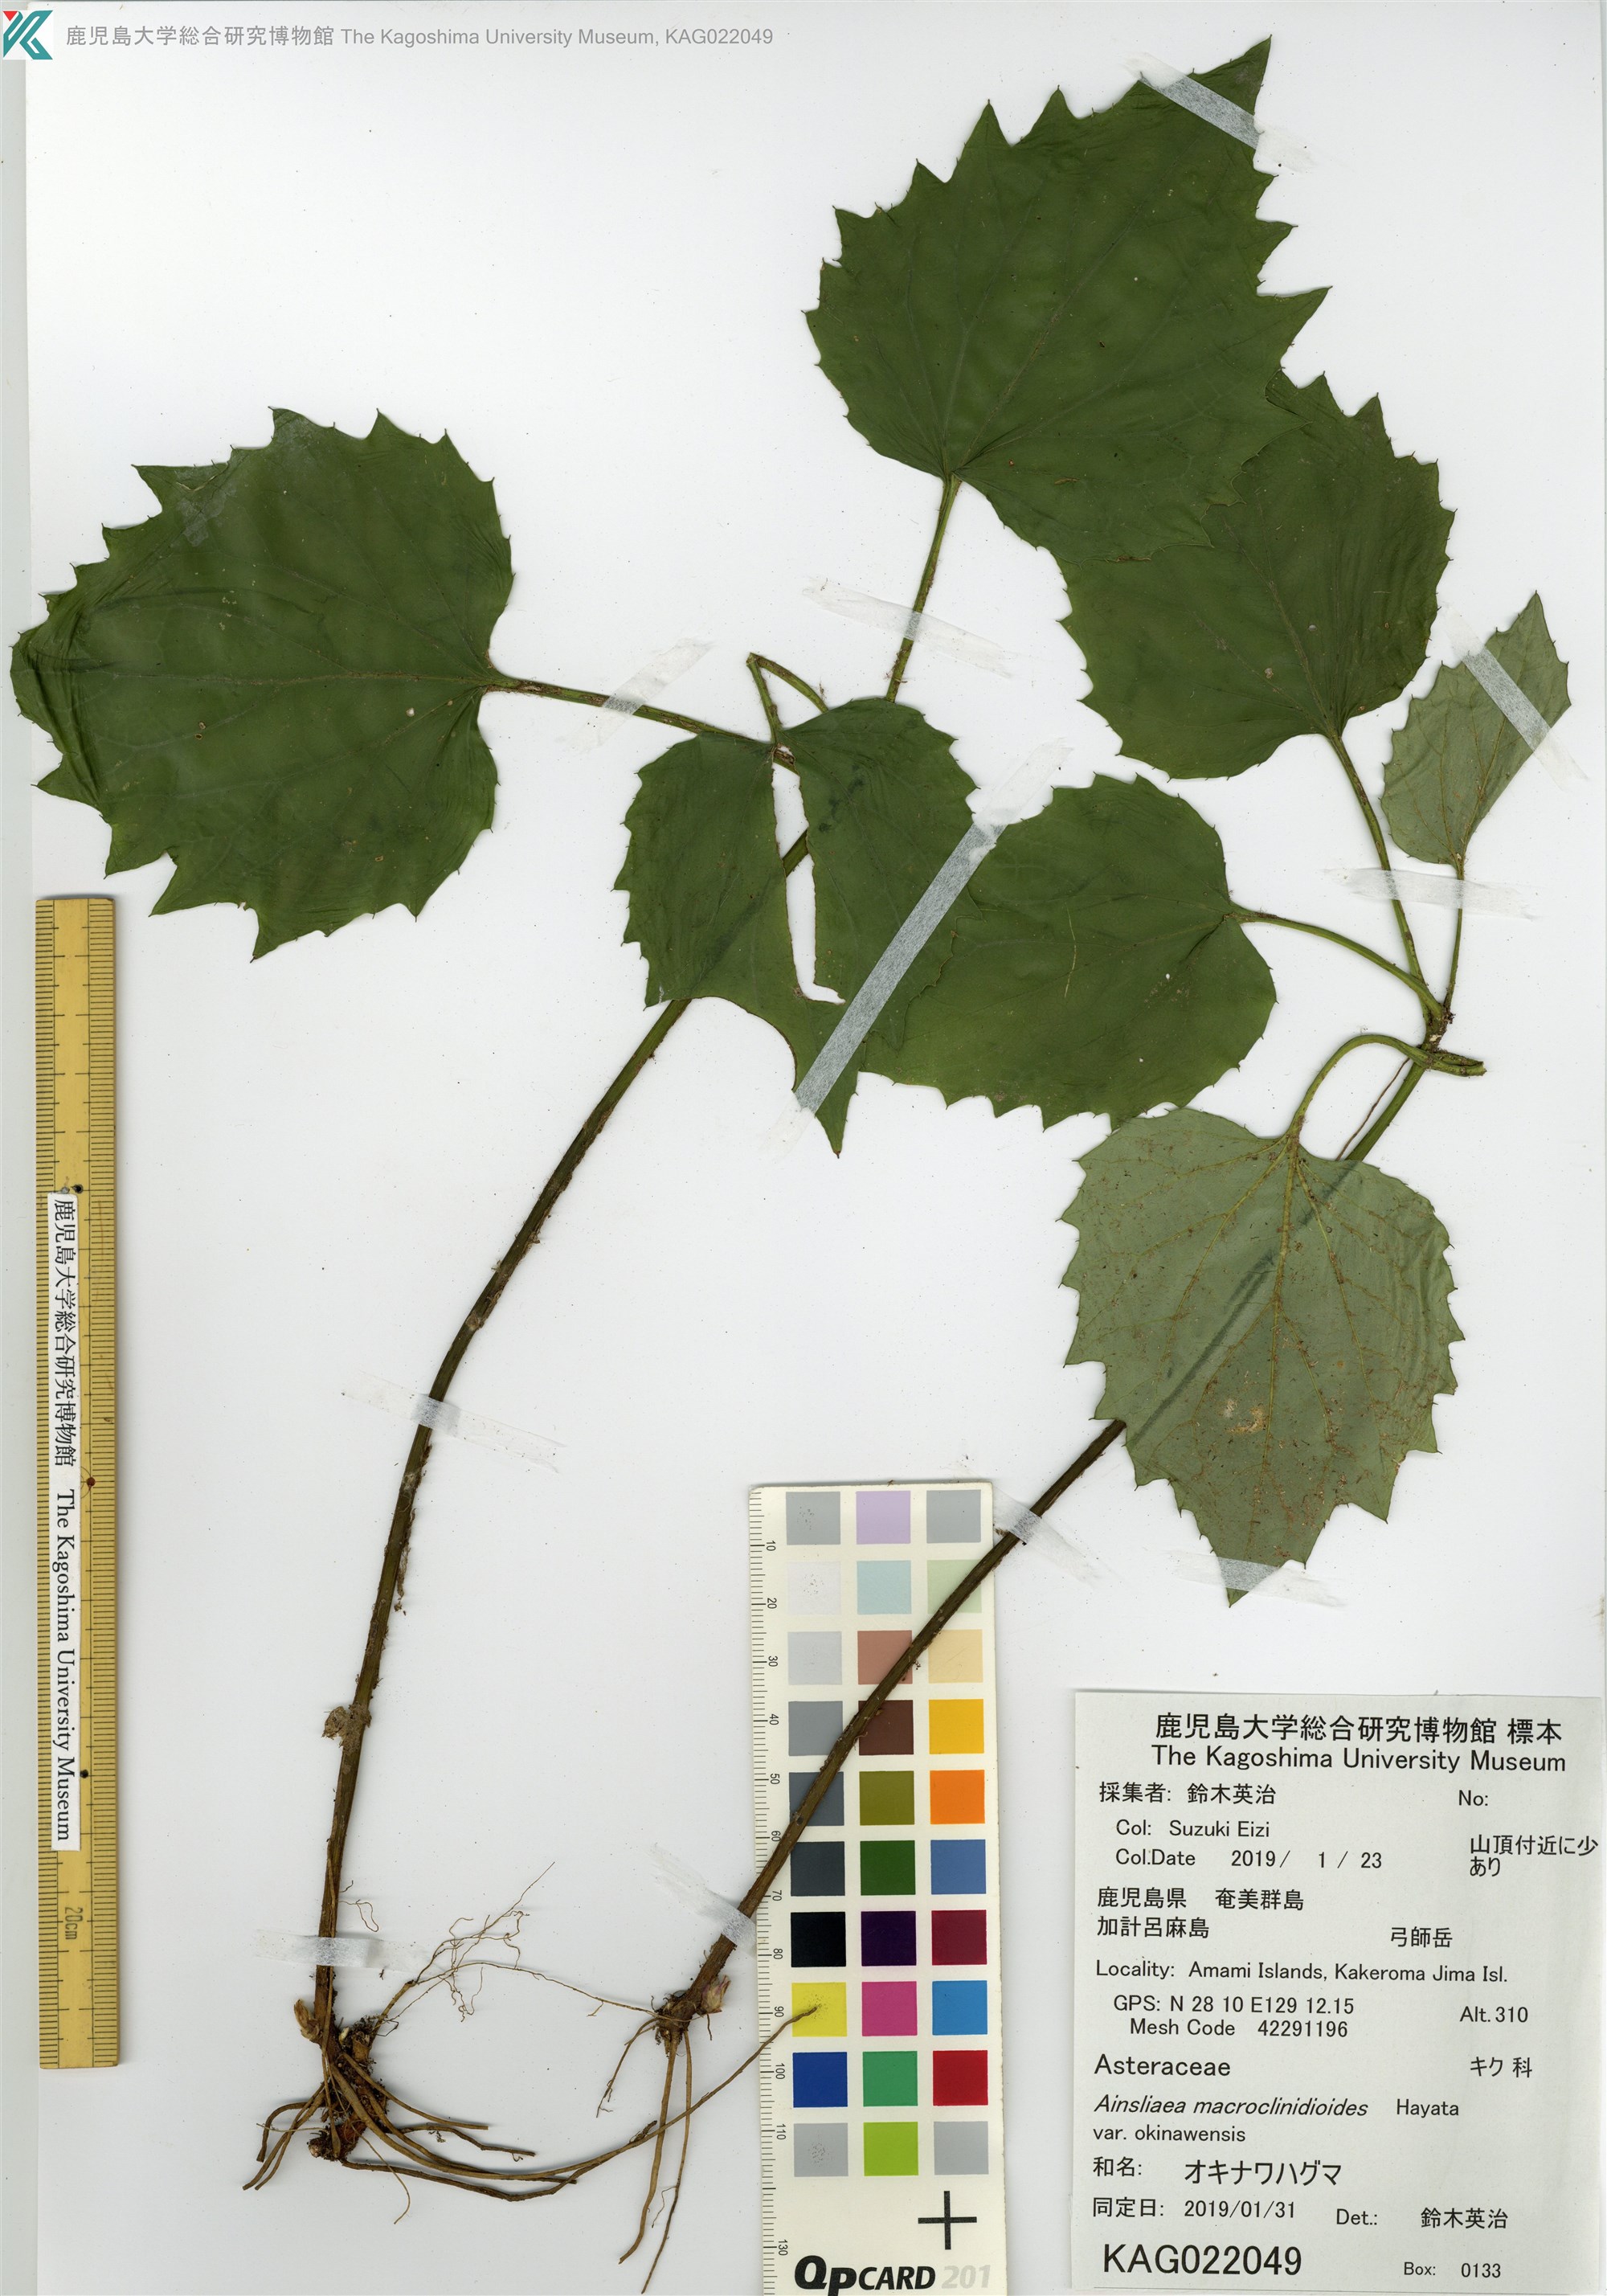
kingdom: Plantae
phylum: Tracheophyta
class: Magnoliopsida
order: Asterales
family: Asteraceae
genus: Ainsliaea
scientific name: Ainsliaea macroclinidioides
